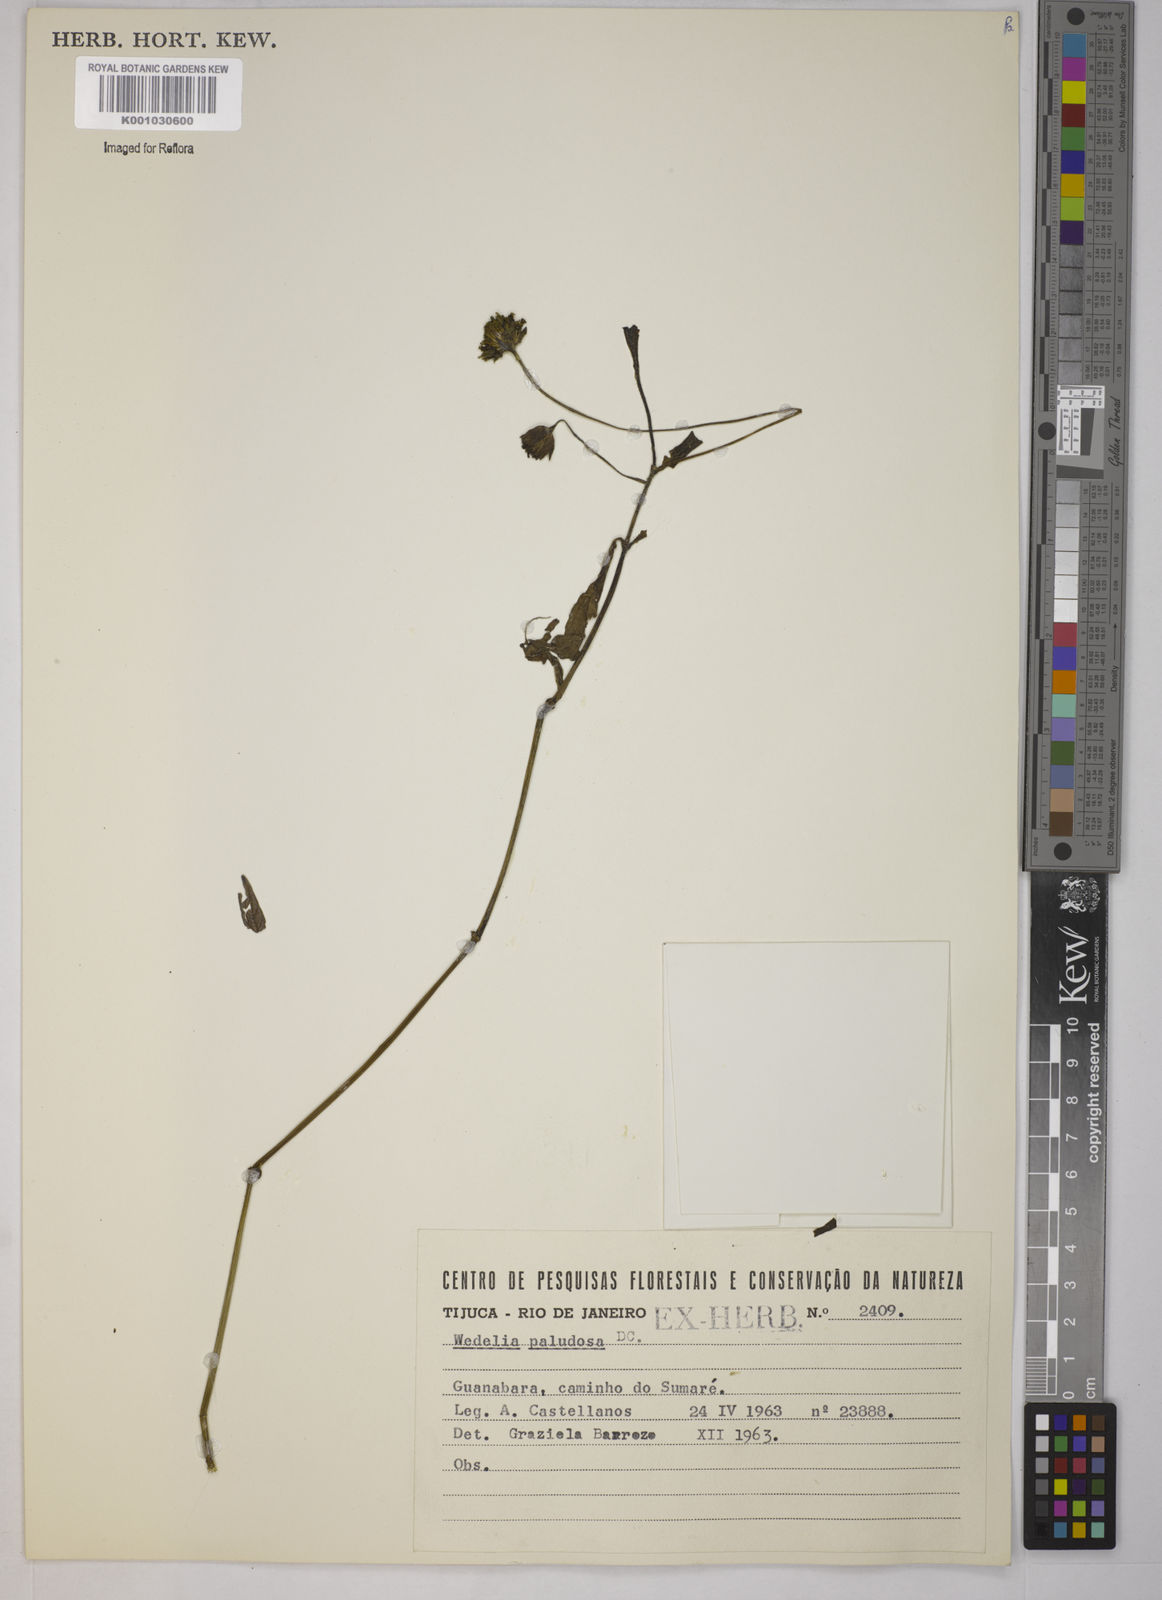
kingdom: Plantae
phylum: Tracheophyta
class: Magnoliopsida
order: Asterales
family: Asteraceae
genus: Sphagneticola
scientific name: Sphagneticola trilobata
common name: Bay biscayne creeping-oxeye
